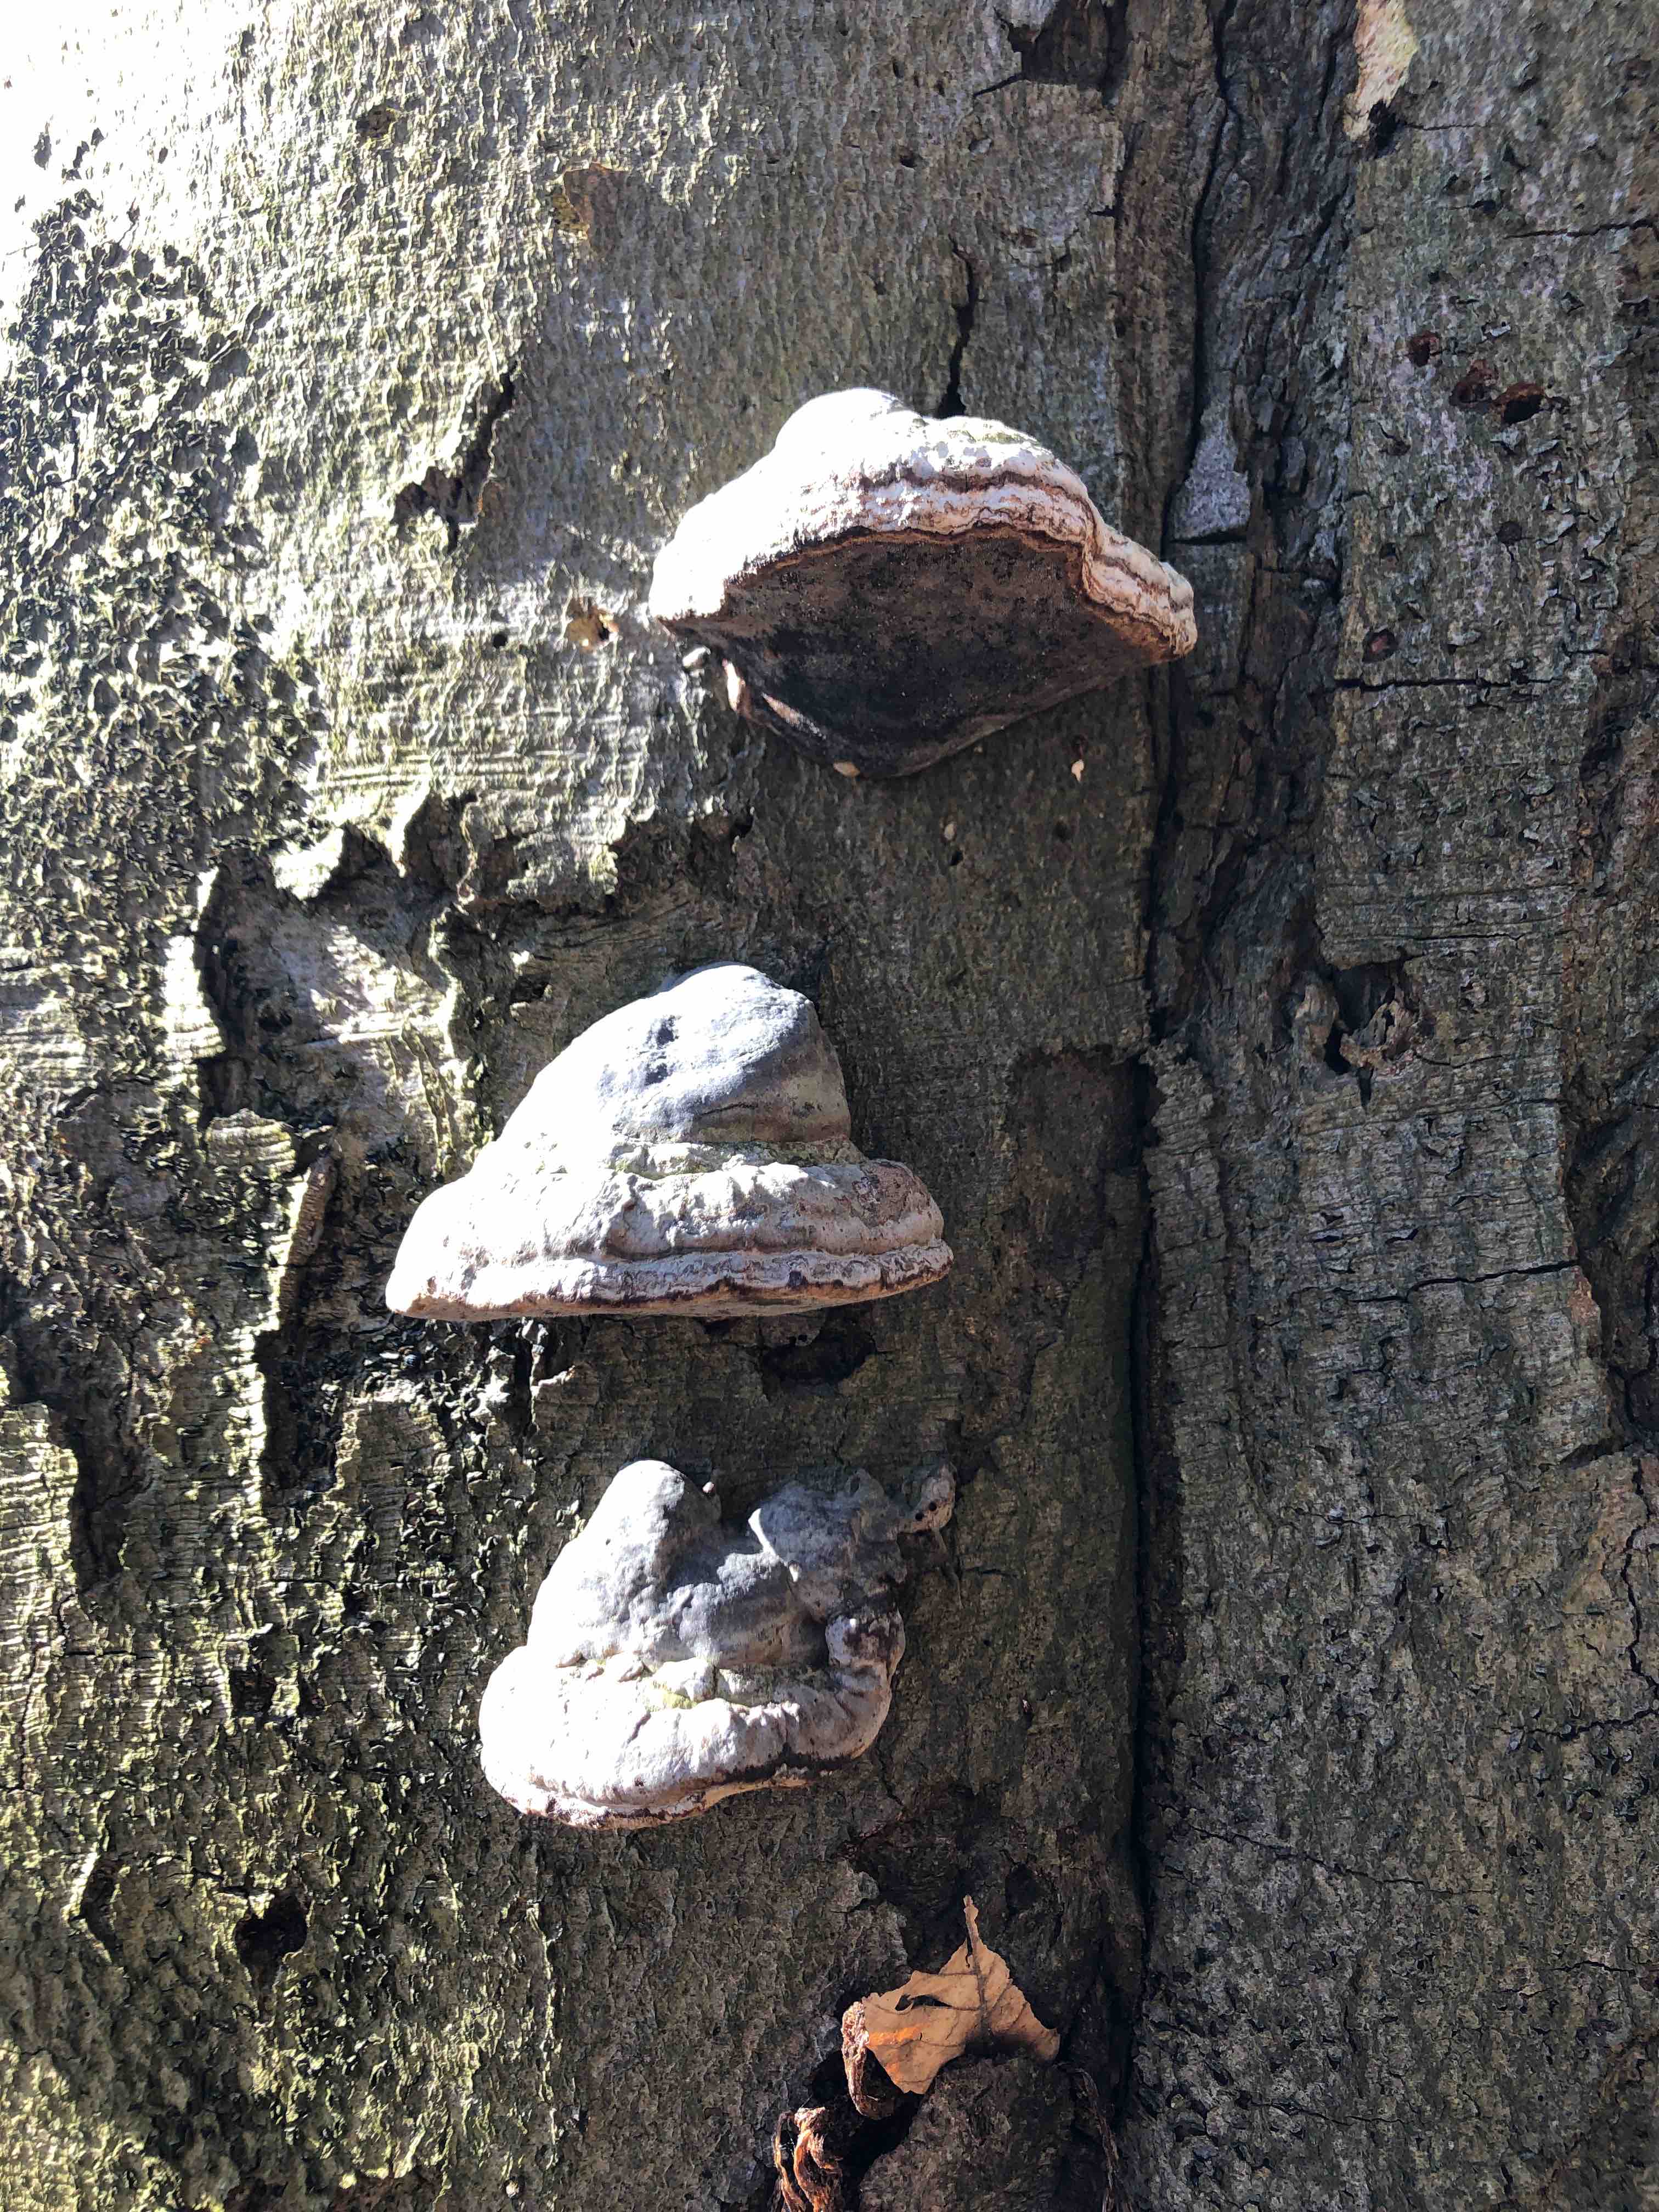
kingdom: Fungi
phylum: Basidiomycota
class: Agaricomycetes
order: Polyporales
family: Polyporaceae
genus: Fomes
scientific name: Fomes fomentarius
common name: tøndersvamp
